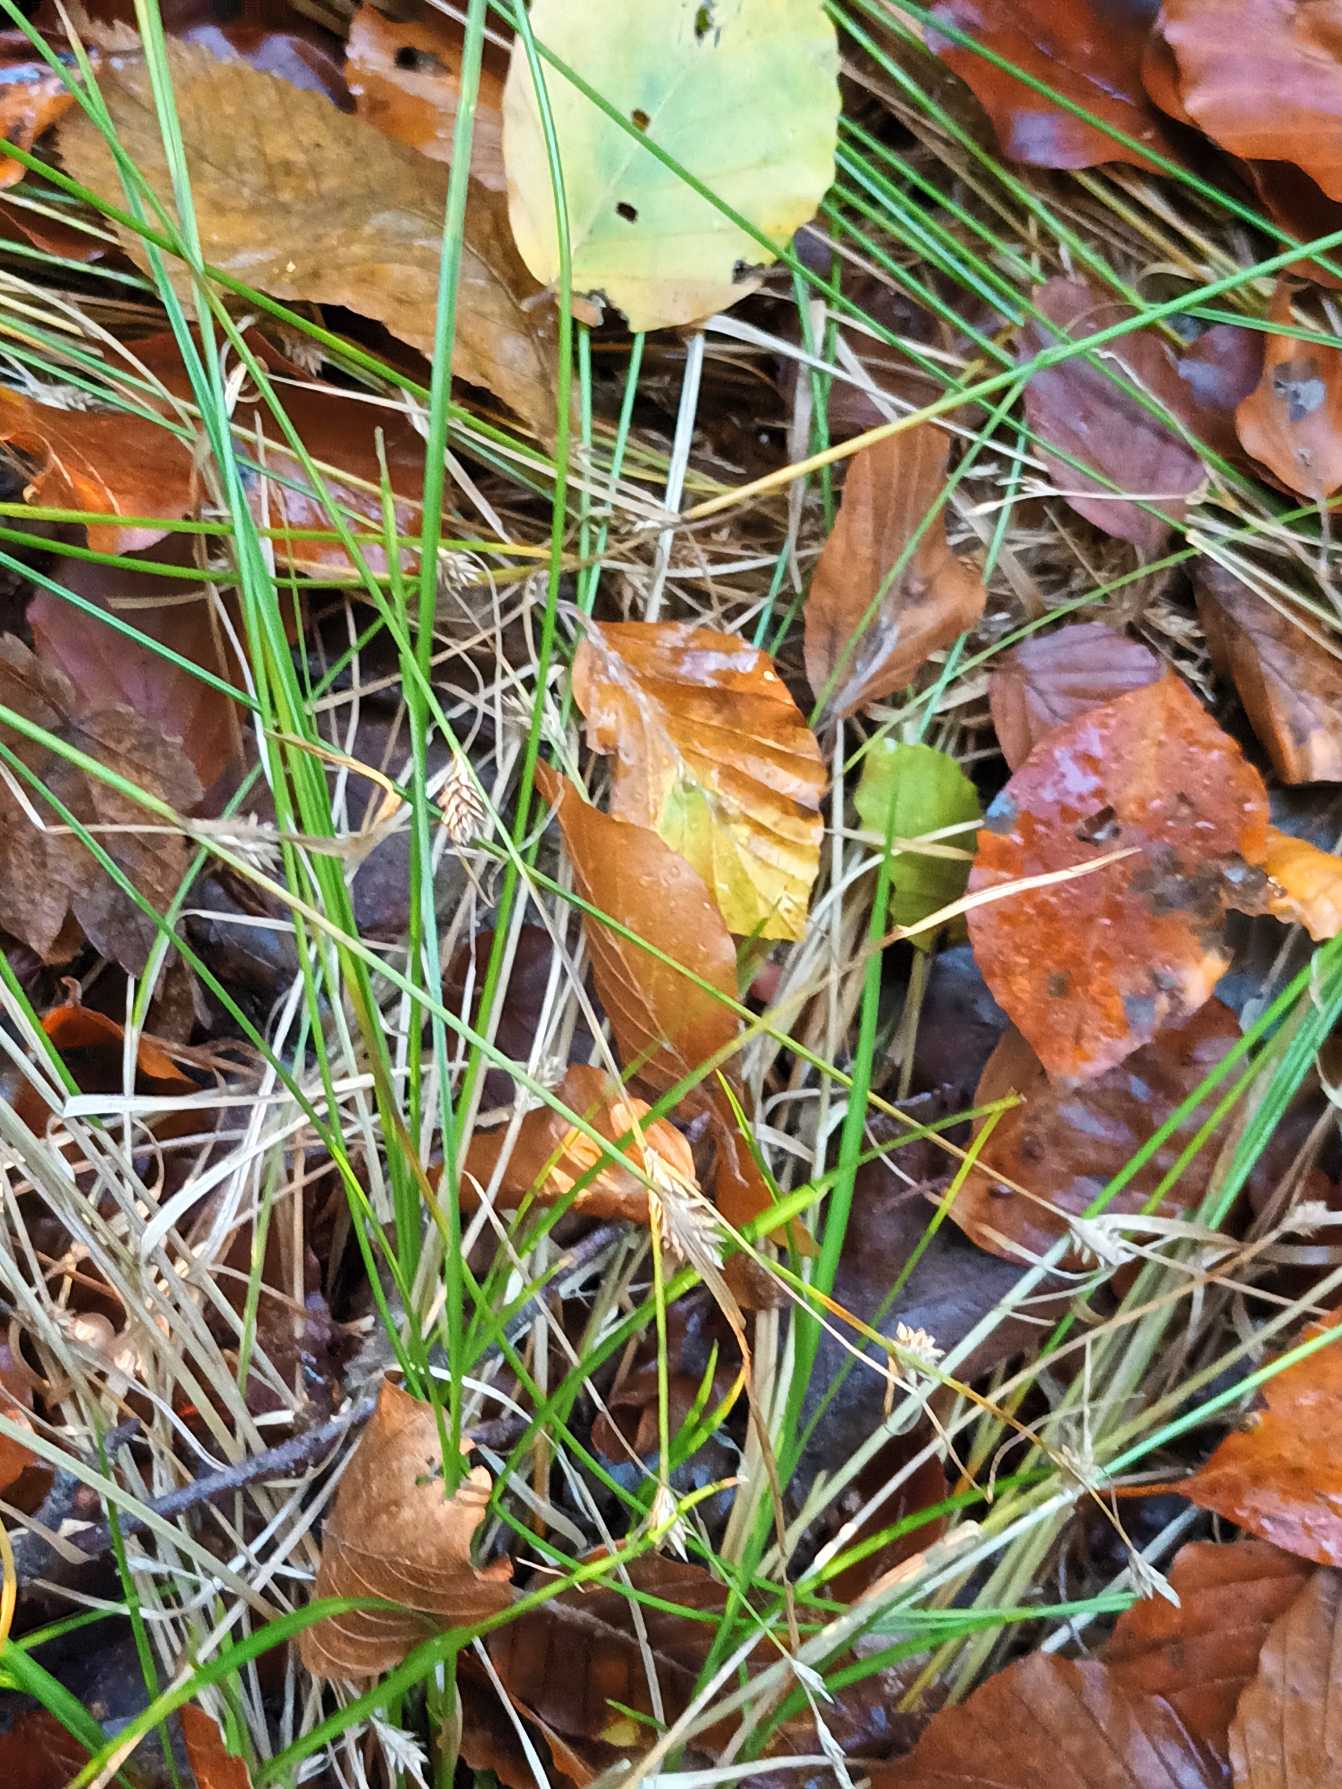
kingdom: Plantae
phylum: Tracheophyta
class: Liliopsida
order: Poales
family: Cyperaceae
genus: Carex
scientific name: Carex remota
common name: Akselblomstret star
